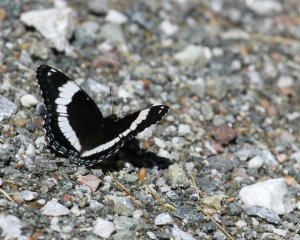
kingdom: Animalia
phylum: Arthropoda
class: Insecta
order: Lepidoptera
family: Nymphalidae
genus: Limenitis
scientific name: Limenitis arthemis
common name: Red-spotted Admiral
